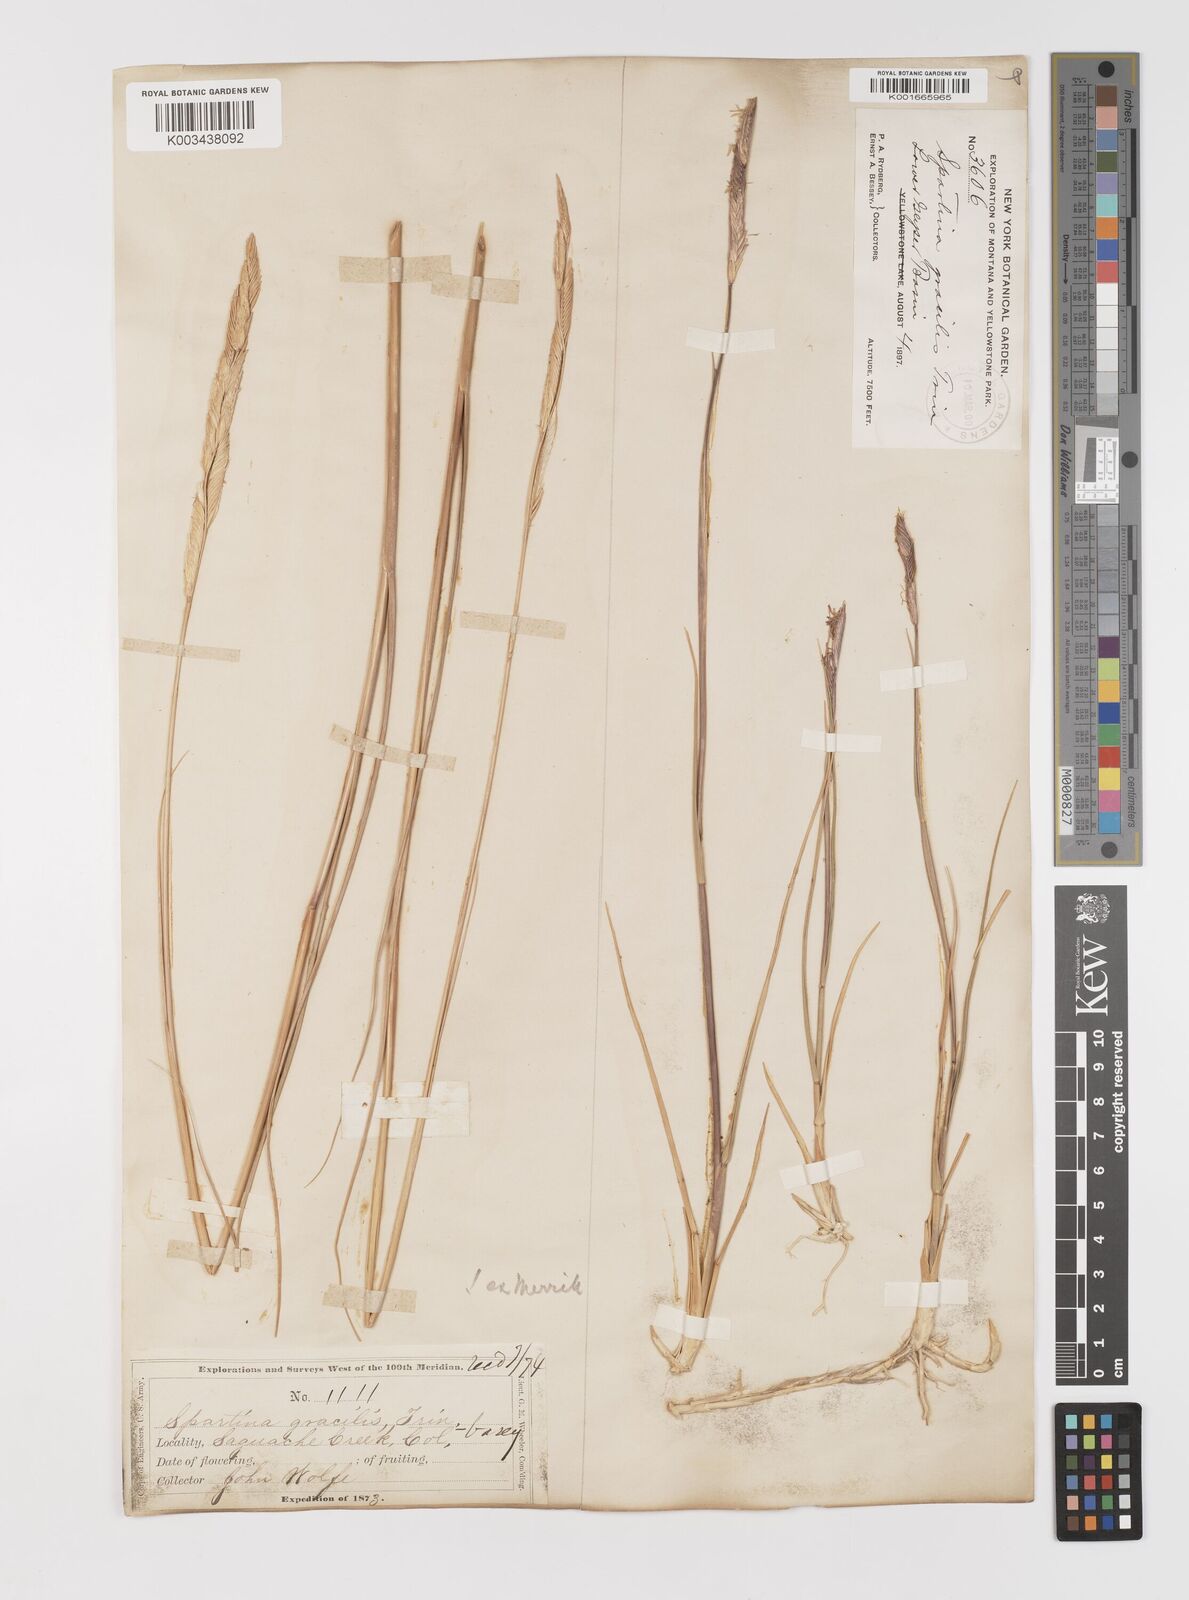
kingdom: Plantae
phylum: Tracheophyta
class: Liliopsida
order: Poales
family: Poaceae
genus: Sporobolus
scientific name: Sporobolus hookerianus
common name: Alkali cordgrass
